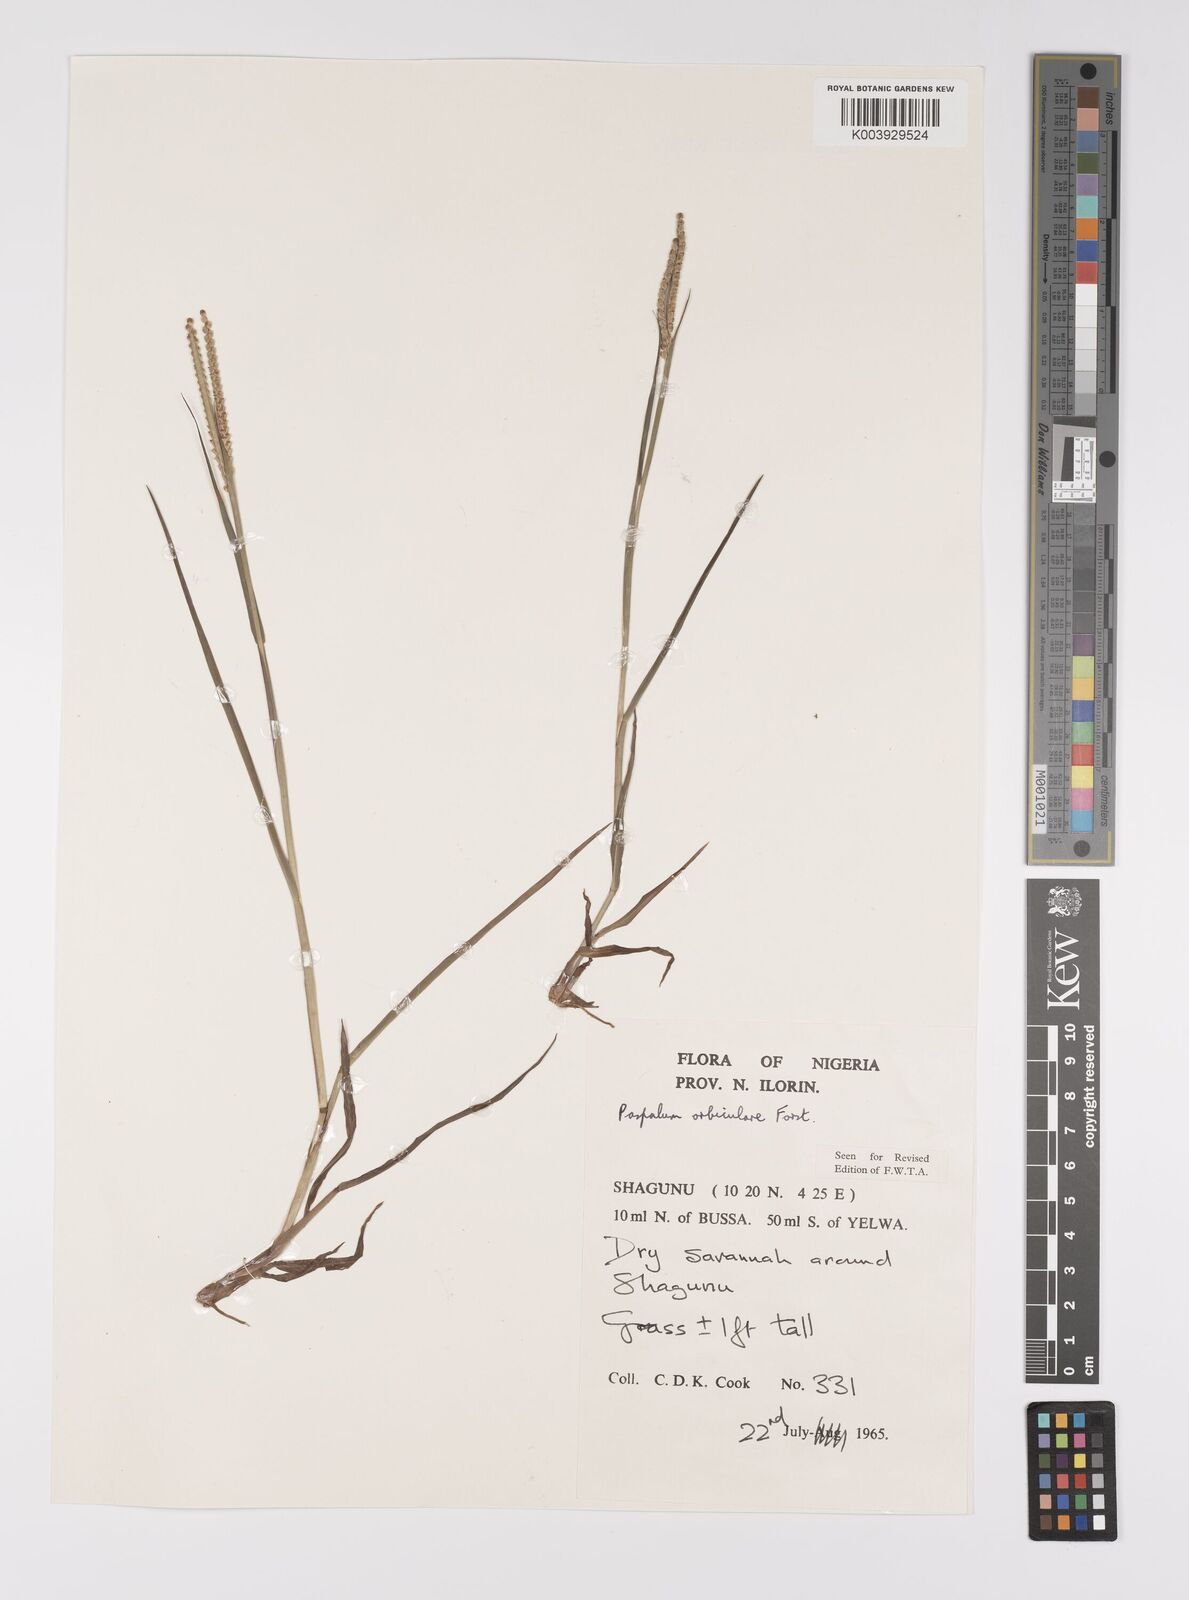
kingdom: Plantae
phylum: Tracheophyta
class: Liliopsida
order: Poales
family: Poaceae
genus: Paspalum
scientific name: Paspalum scrobiculatum
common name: Kodo millet
